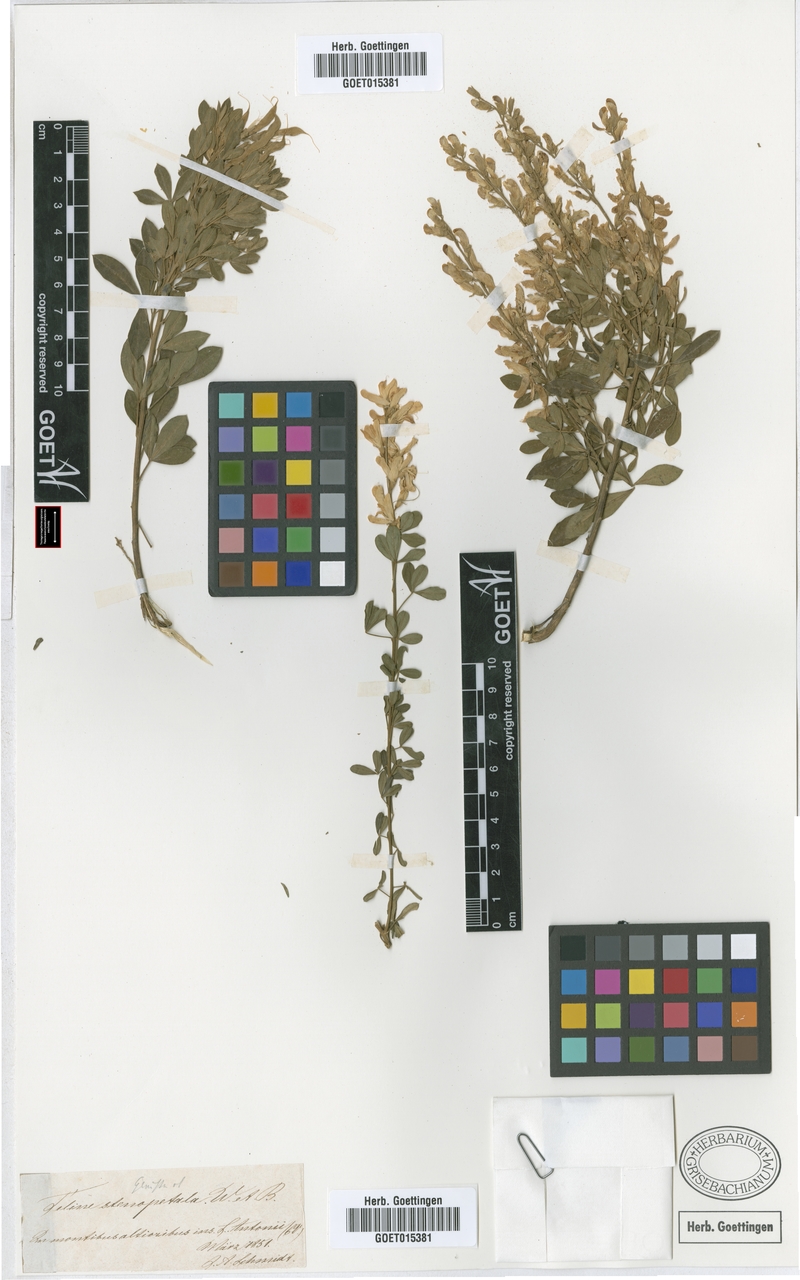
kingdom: Plantae
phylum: Tracheophyta
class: Magnoliopsida
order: Fabales
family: Fabaceae
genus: Genista
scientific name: Genista stenopetala
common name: Leafy broom
